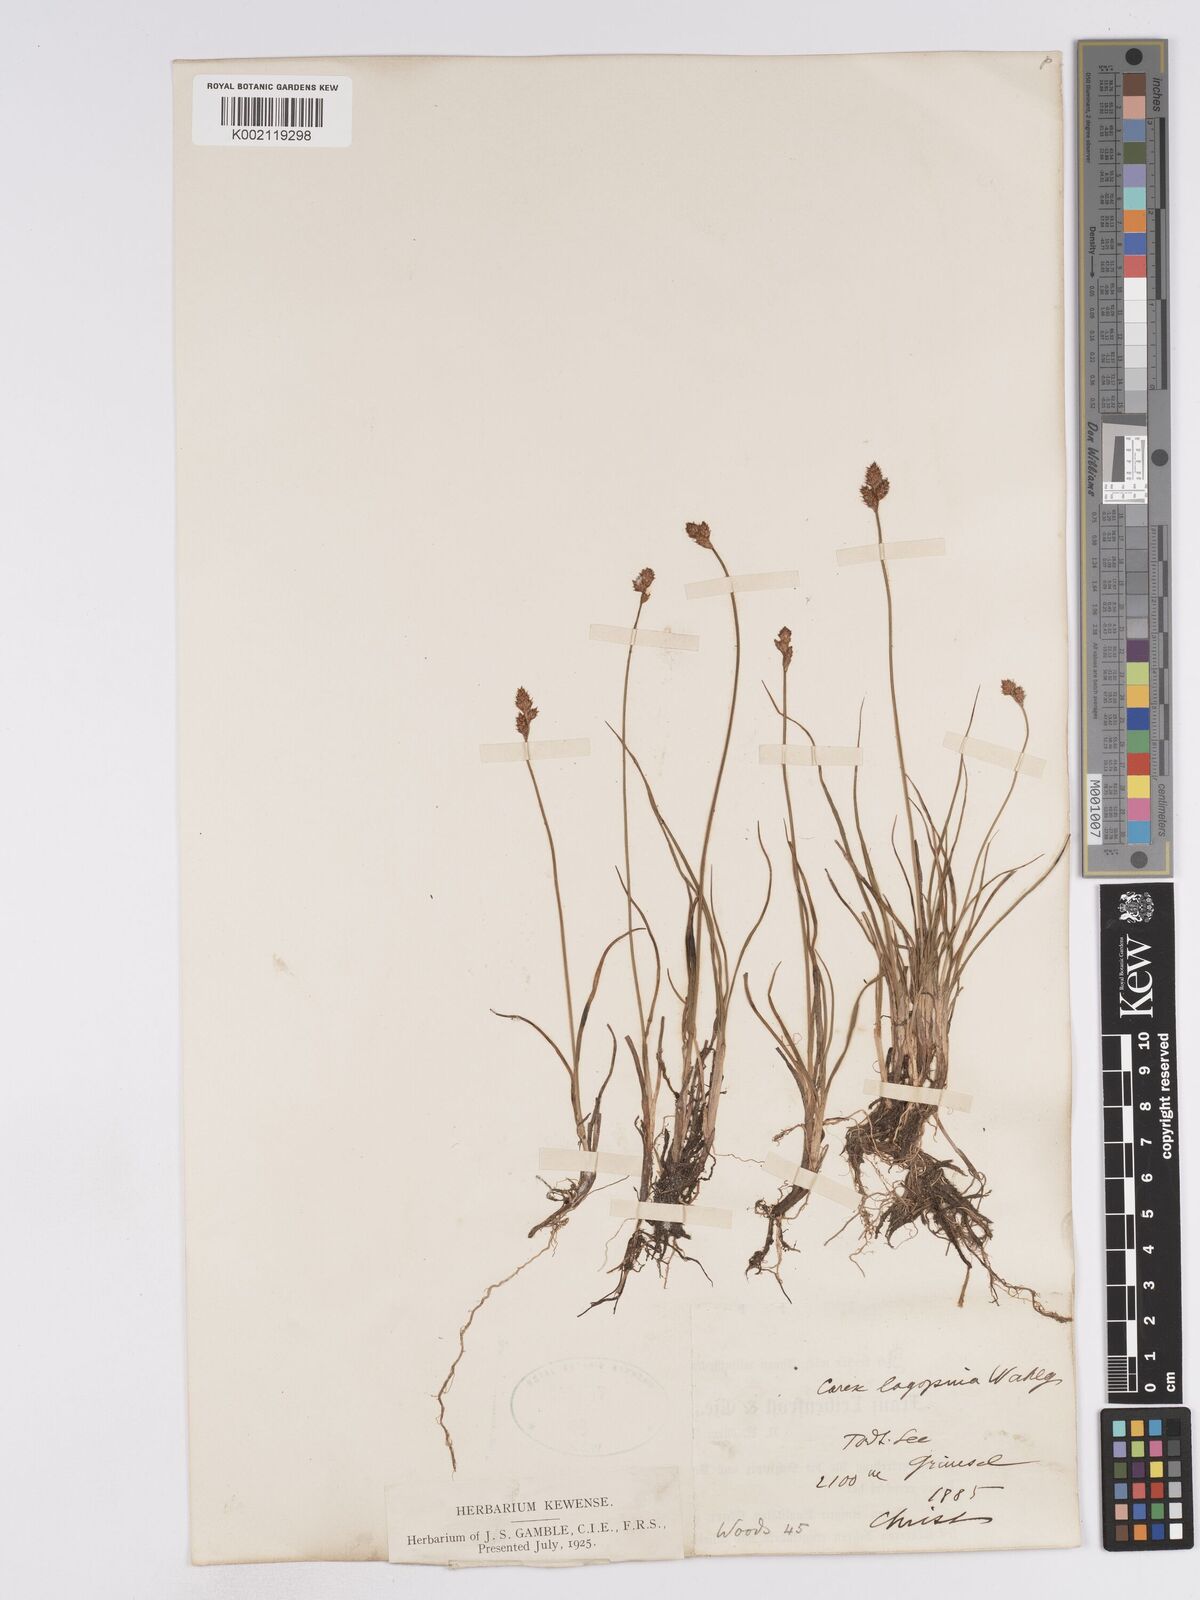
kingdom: Plantae
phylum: Tracheophyta
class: Liliopsida
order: Poales
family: Cyperaceae
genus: Carex
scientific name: Carex lachenalii
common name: Hare's-foot sedge
